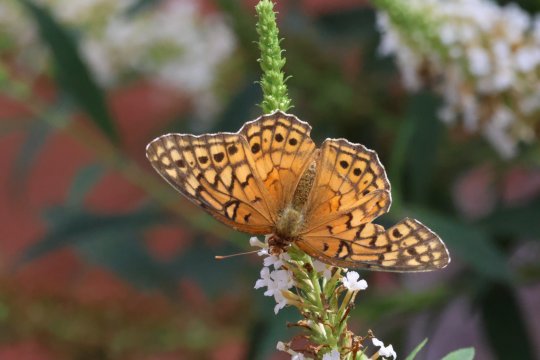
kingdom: Animalia
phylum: Arthropoda
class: Insecta
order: Lepidoptera
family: Nymphalidae
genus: Euptoieta
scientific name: Euptoieta claudia
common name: Variegated Fritillary
